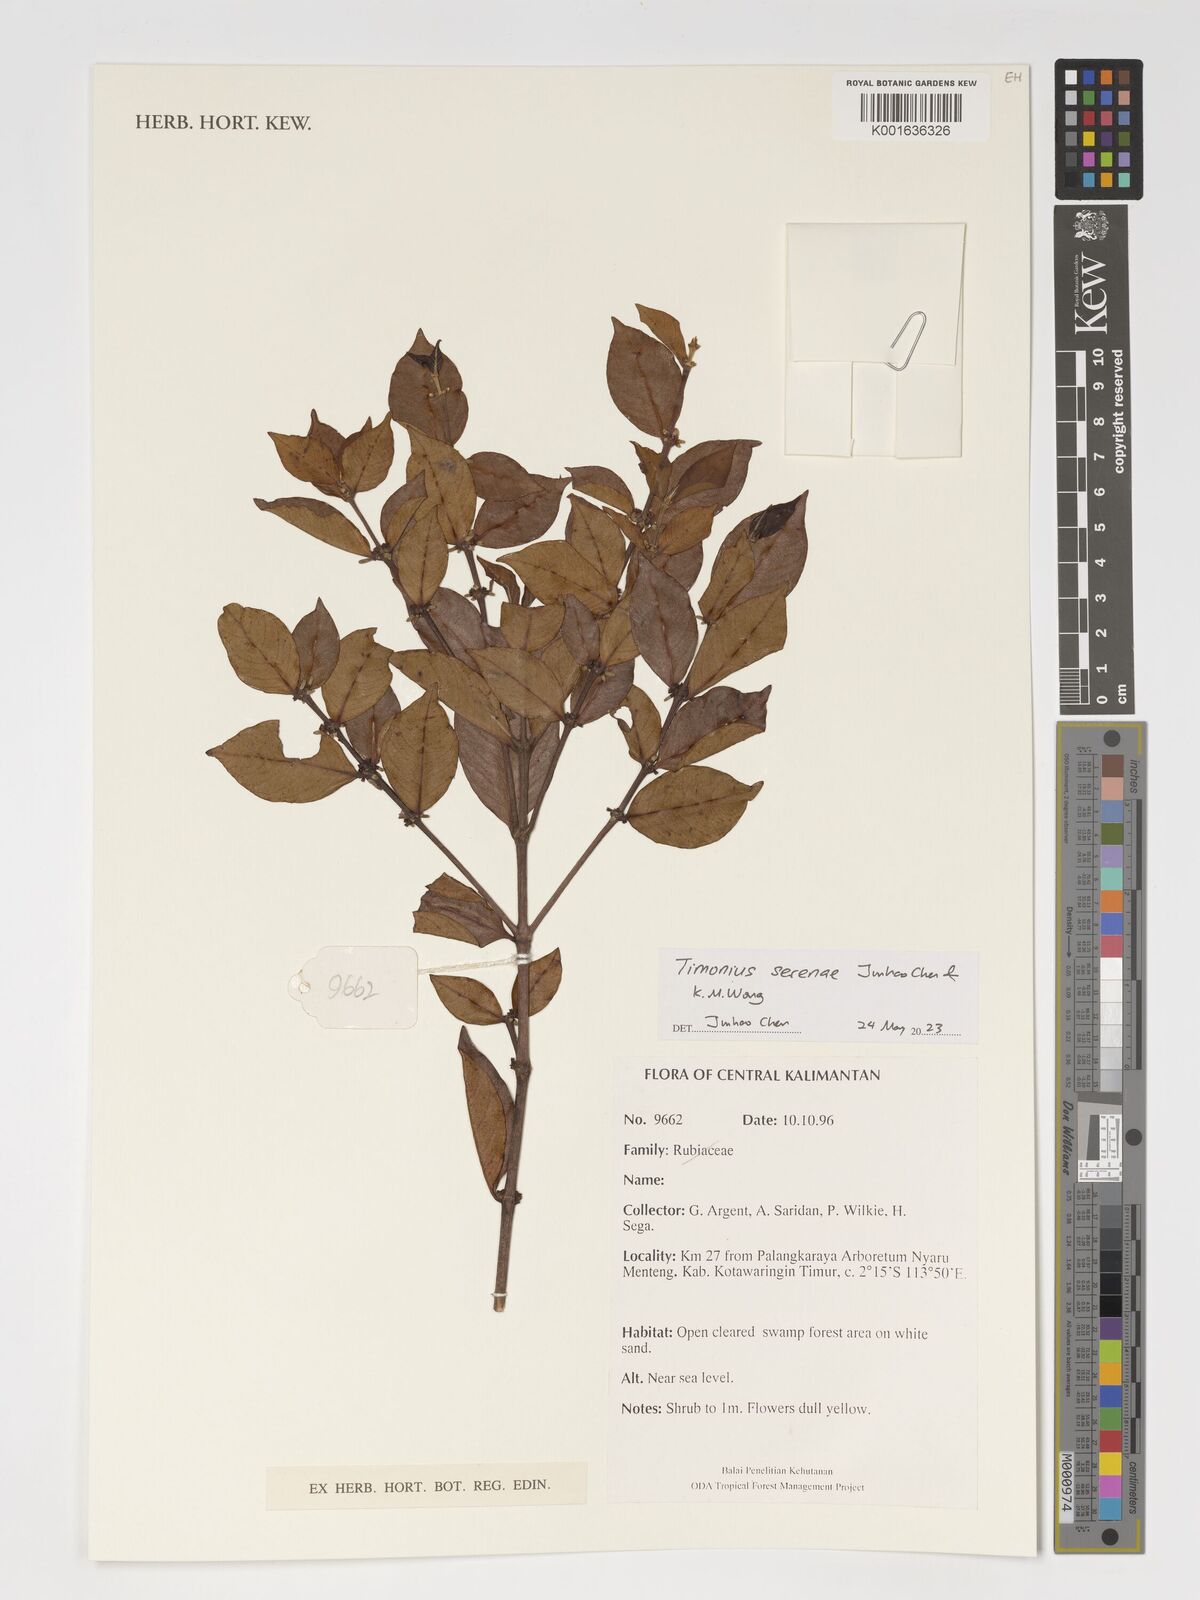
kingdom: Plantae
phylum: Tracheophyta
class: Magnoliopsida
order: Gentianales
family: Rubiaceae
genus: Timonius
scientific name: Timonius
